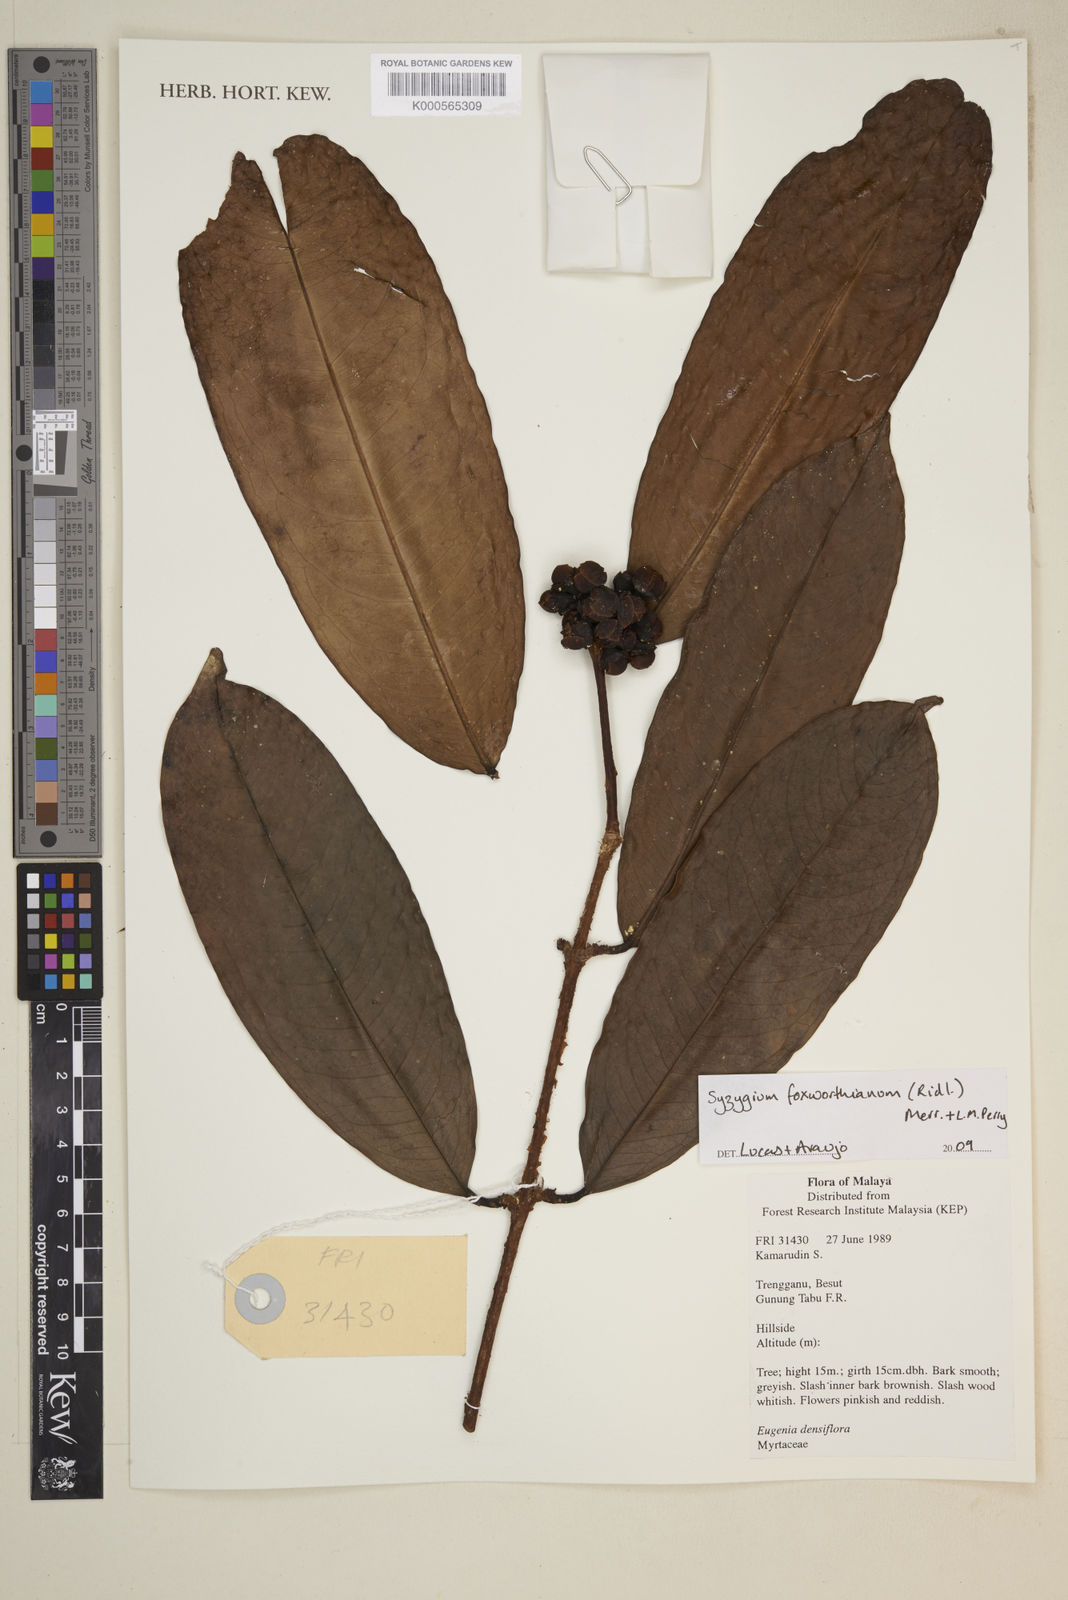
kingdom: Plantae
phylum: Tracheophyta
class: Magnoliopsida
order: Myrtales
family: Myrtaceae
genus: Syzygium
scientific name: Syzygium foxworthianum
